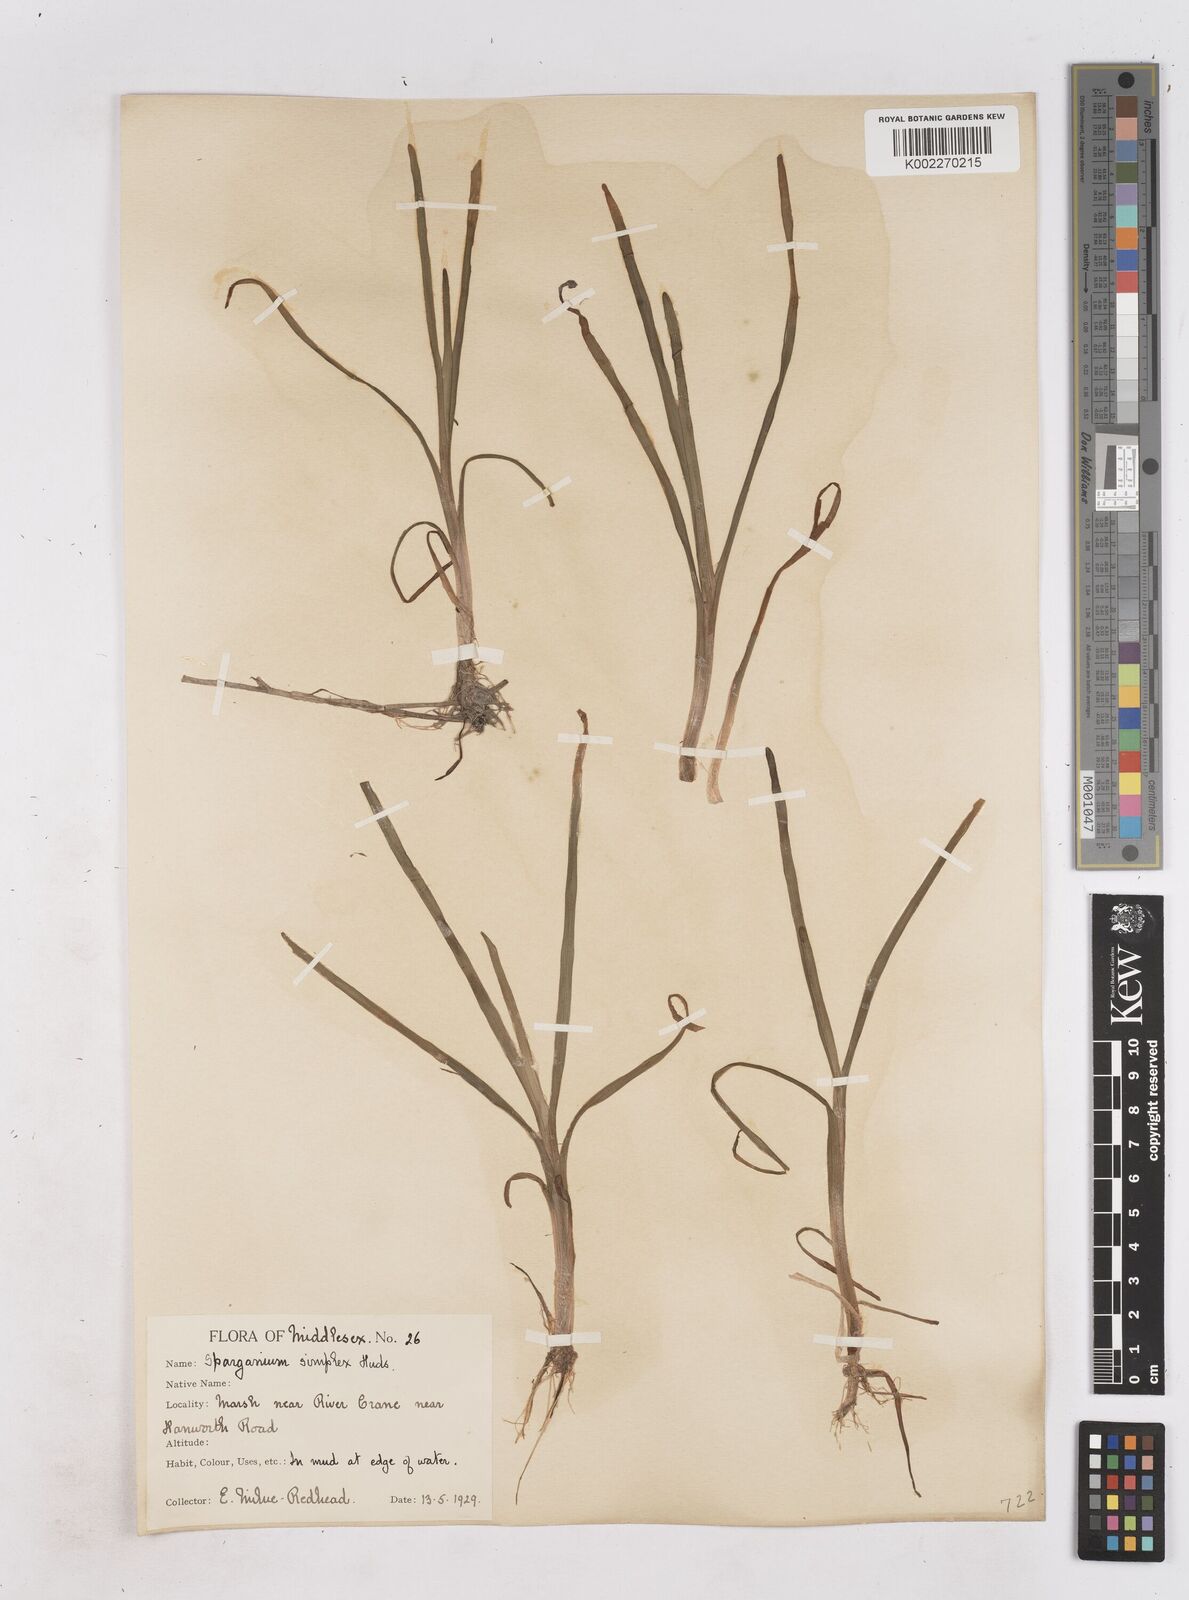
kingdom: Plantae
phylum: Tracheophyta
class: Liliopsida
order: Poales
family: Typhaceae
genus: Sparganium
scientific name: Sparganium emersum
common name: Unbranched bur-reed
